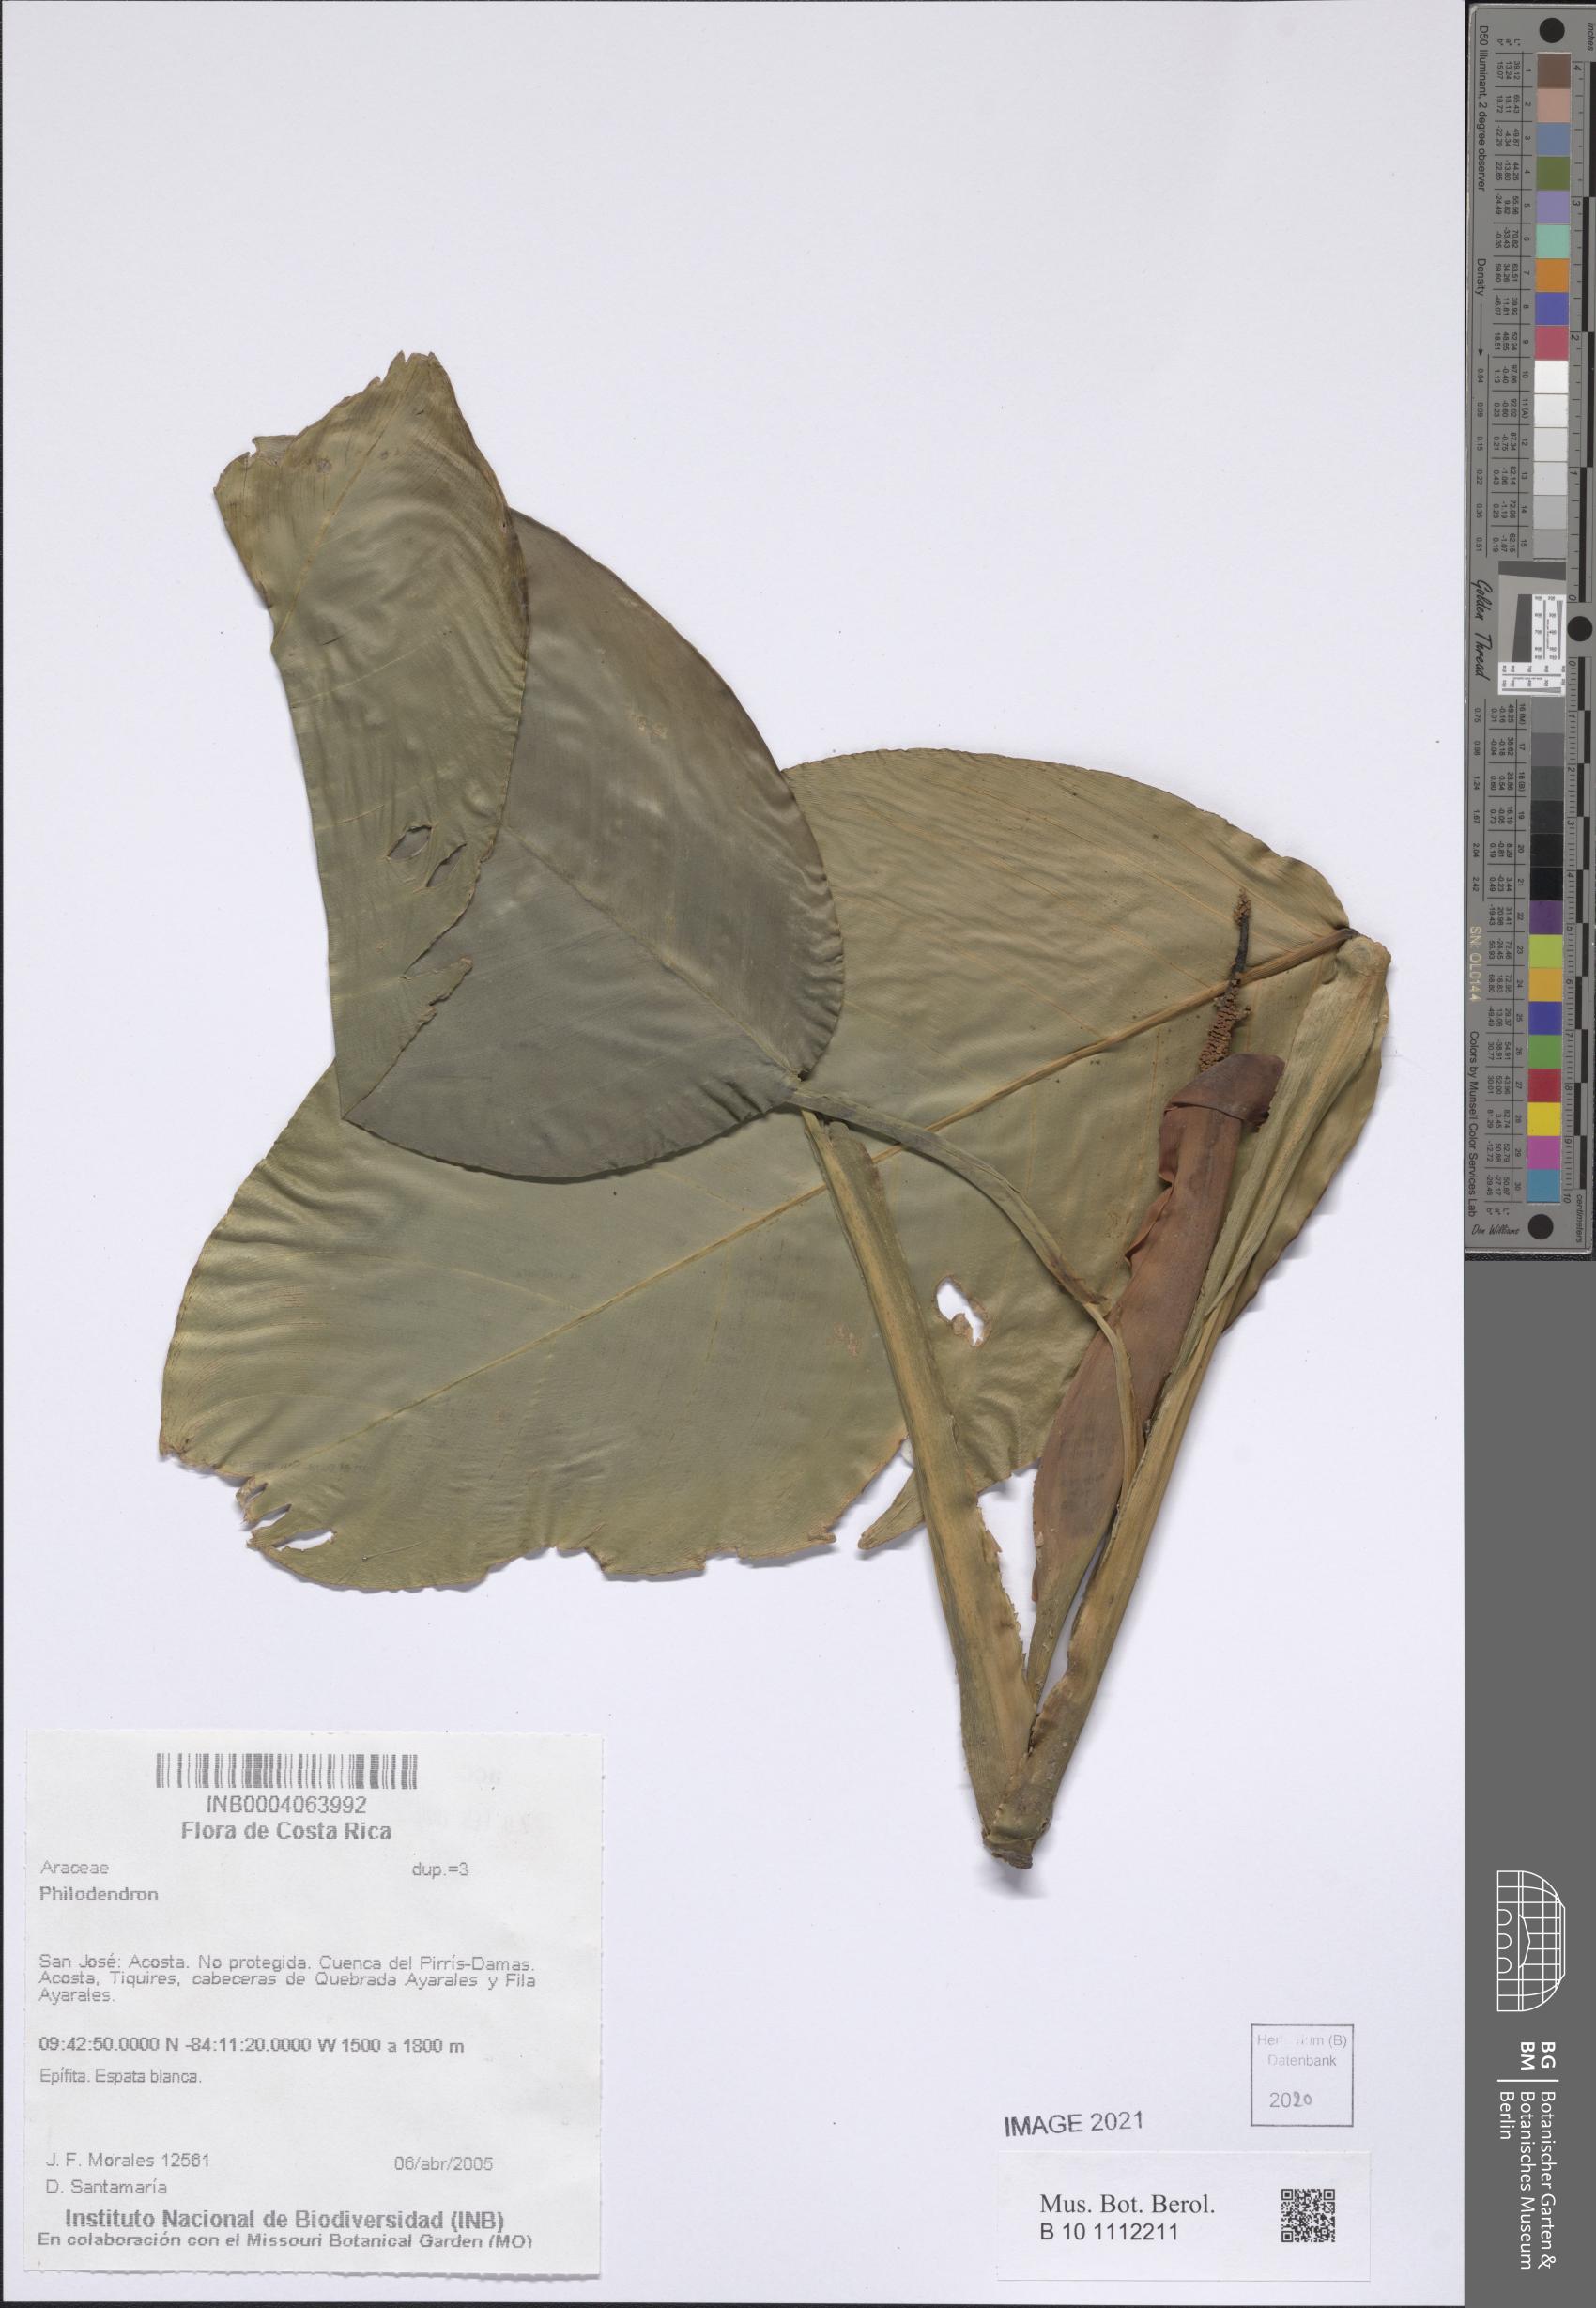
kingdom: Plantae
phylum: Tracheophyta
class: Liliopsida
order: Alismatales
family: Araceae
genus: Philodendron
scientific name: Philodendron
